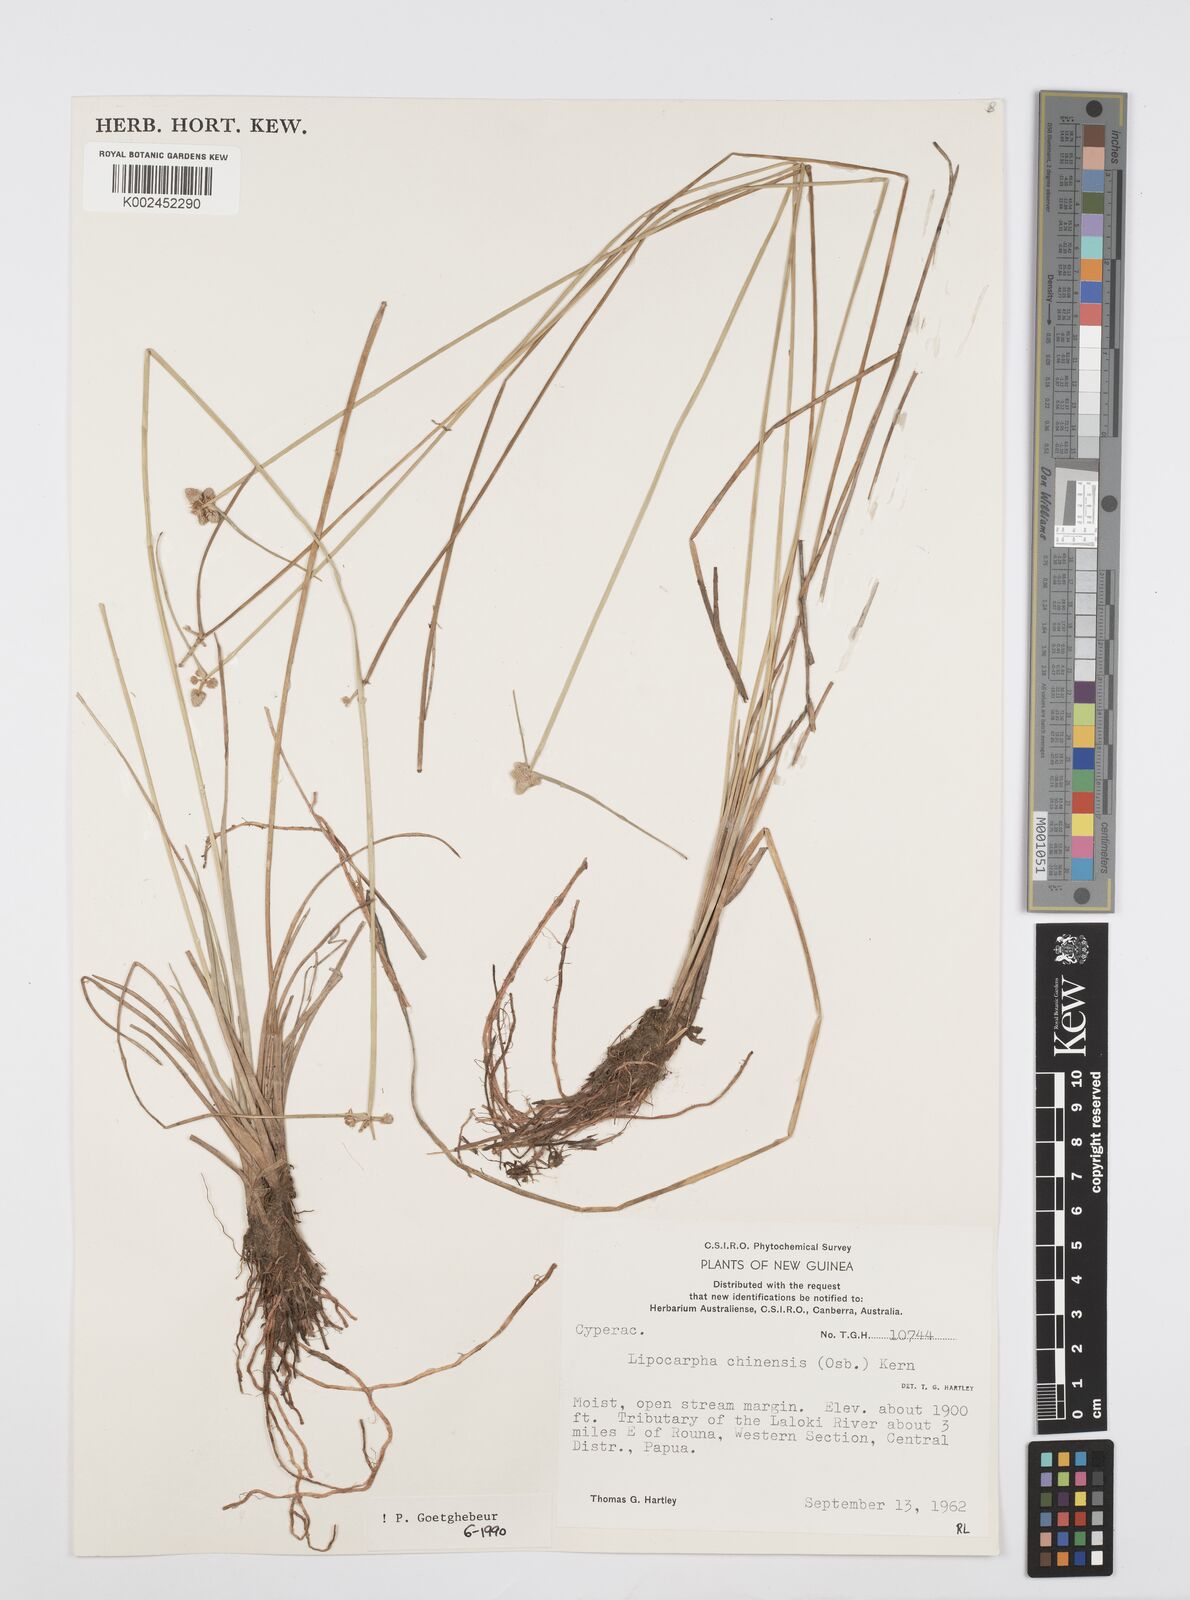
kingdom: Plantae
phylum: Tracheophyta
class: Liliopsida
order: Poales
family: Cyperaceae
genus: Cyperus
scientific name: Cyperus albescens
